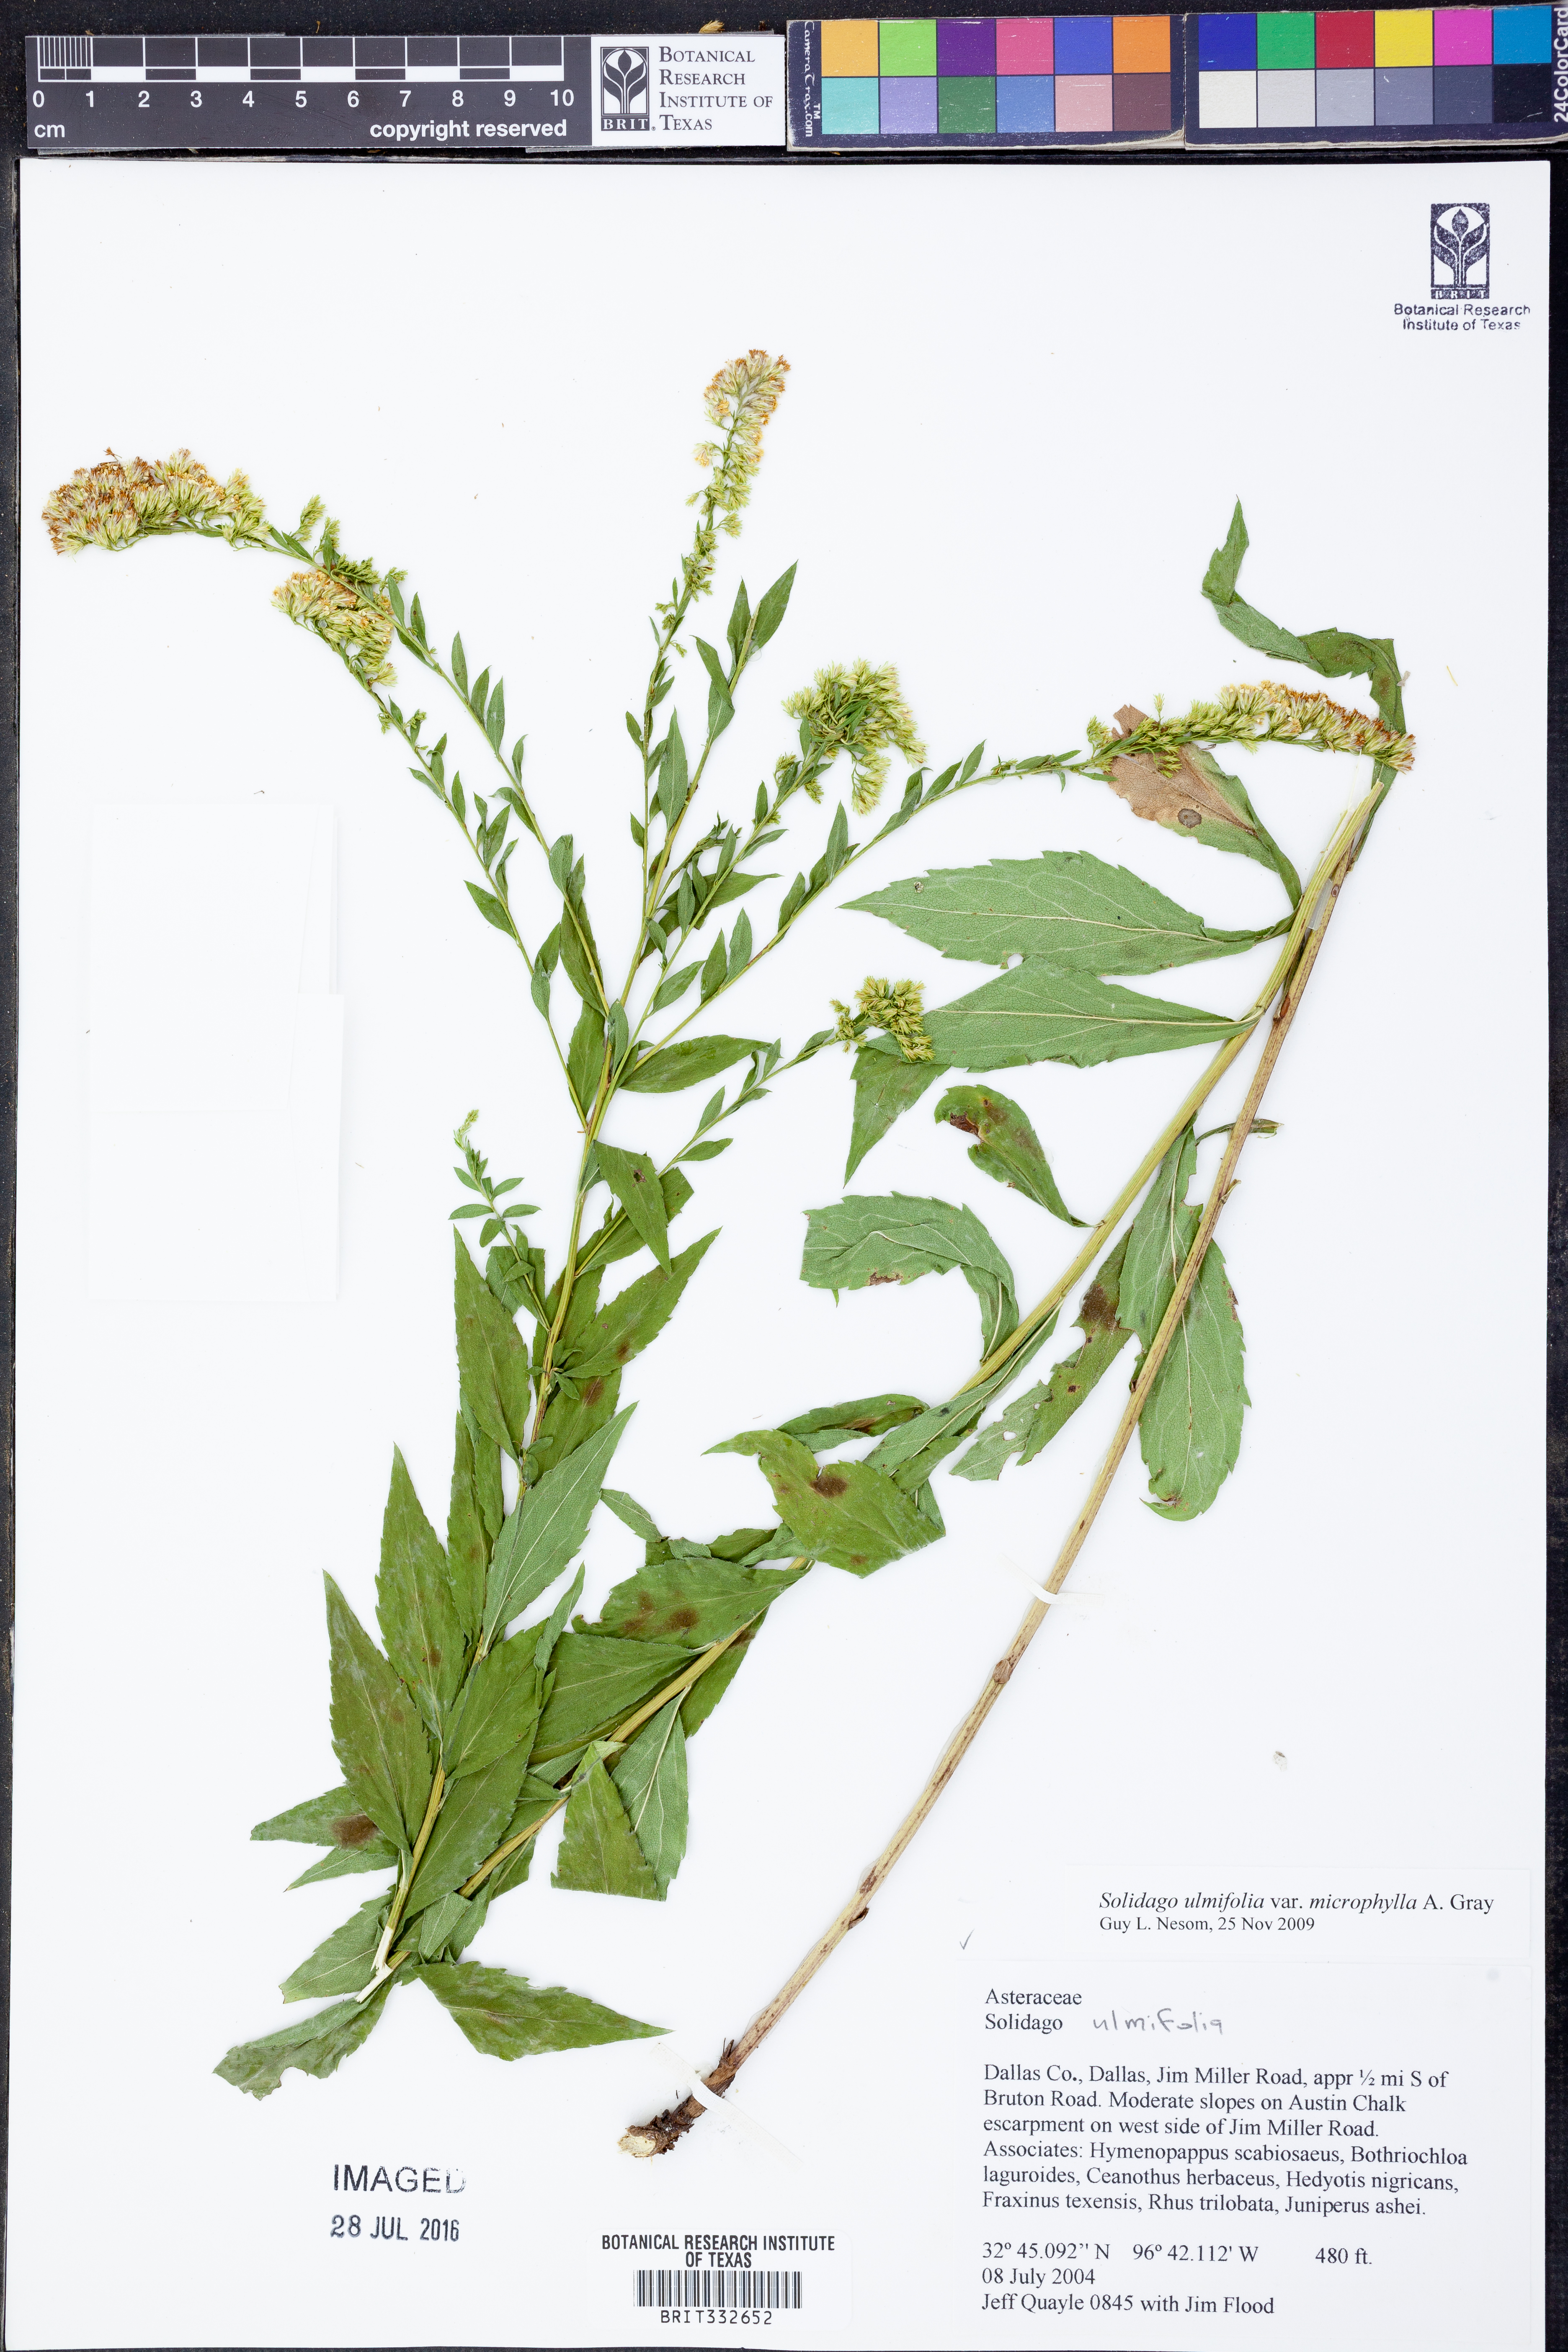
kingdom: Plantae
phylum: Tracheophyta
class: Magnoliopsida
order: Asterales
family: Asteraceae
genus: Solidago
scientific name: Solidago delicatula
